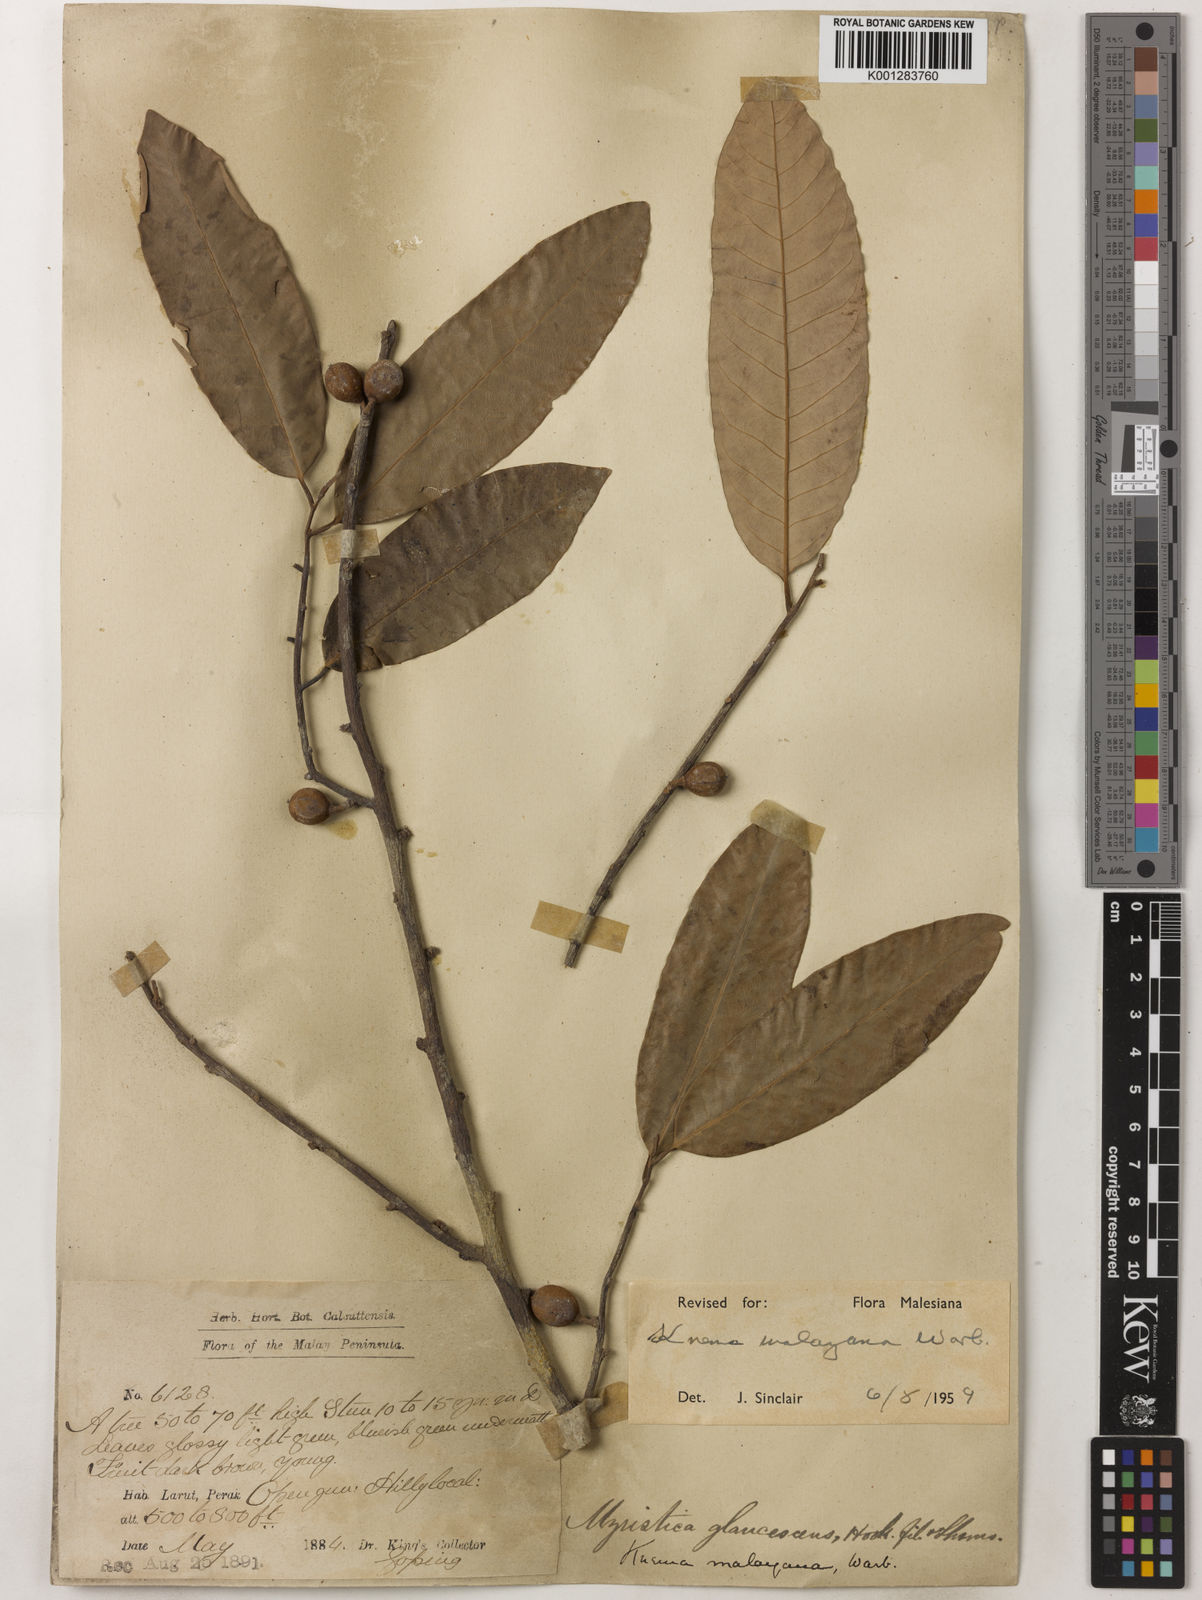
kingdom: Plantae
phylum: Tracheophyta
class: Magnoliopsida
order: Magnoliales
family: Myristicaceae
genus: Knema
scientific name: Knema malayana
